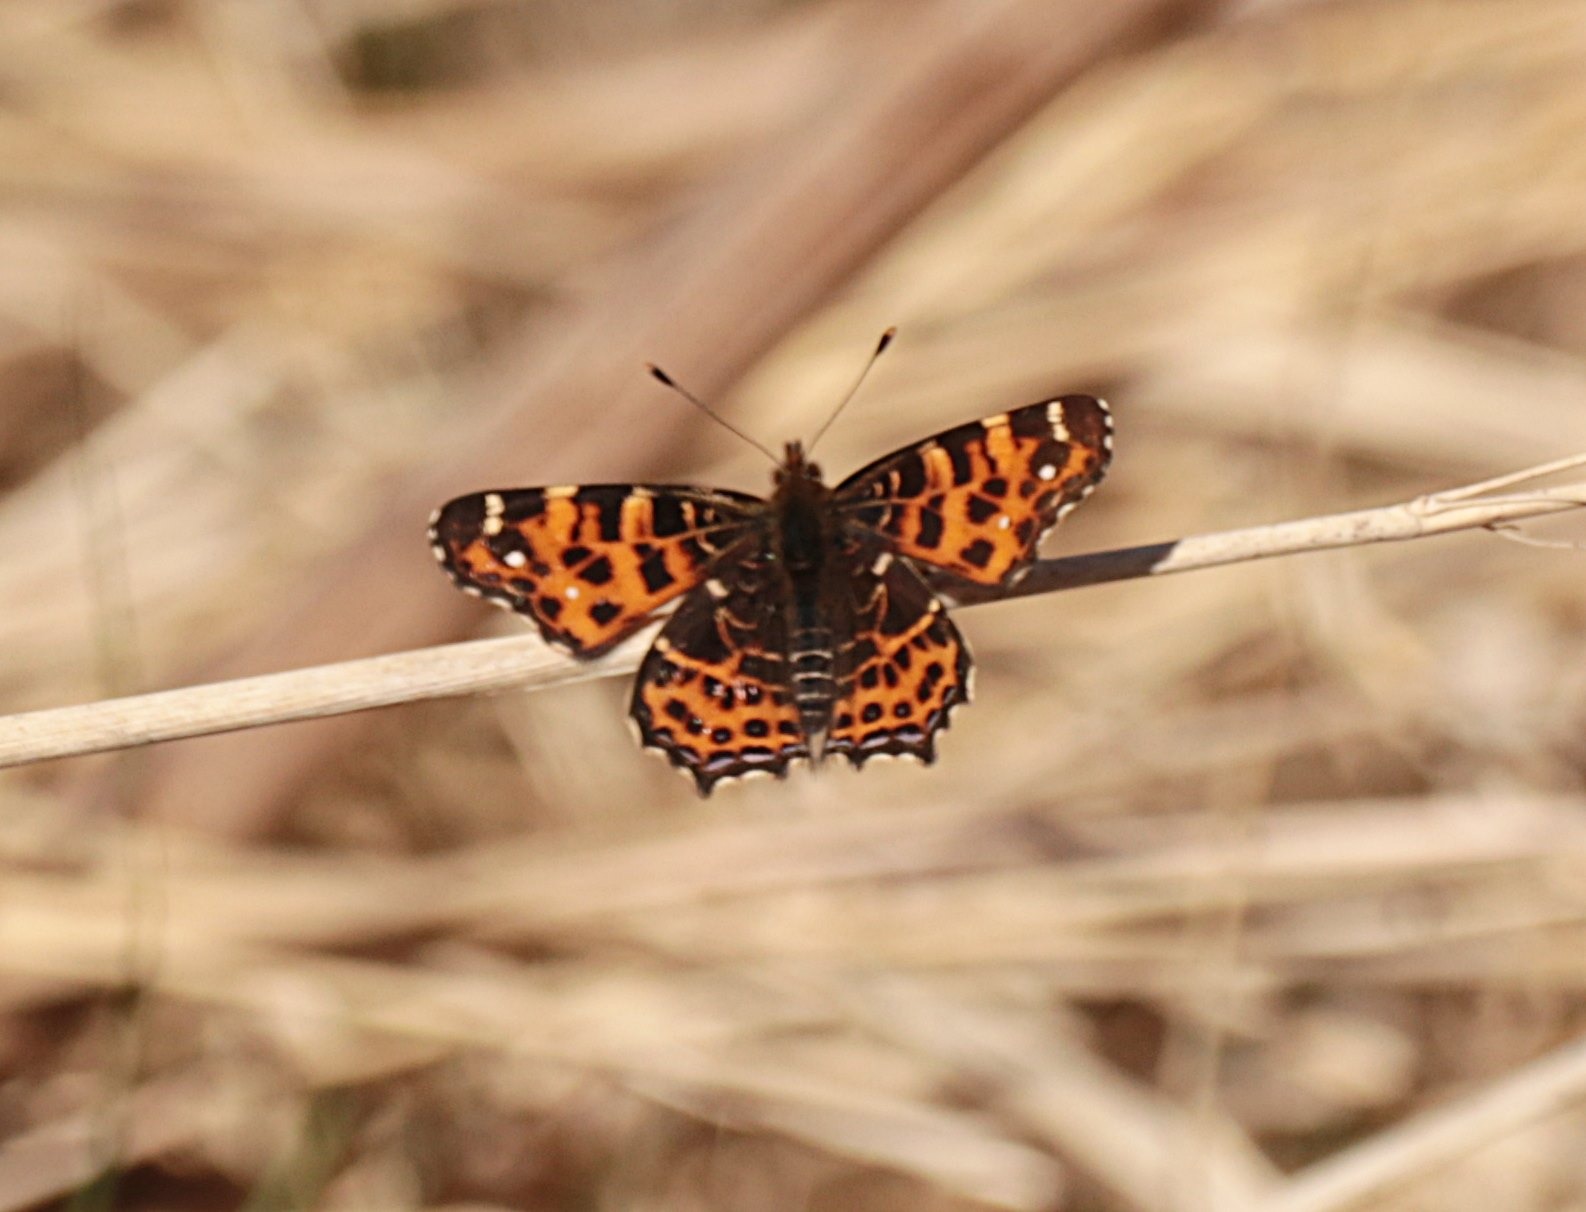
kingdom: Animalia
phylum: Arthropoda
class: Insecta
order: Lepidoptera
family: Nymphalidae
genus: Araschnia
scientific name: Araschnia levana
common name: Nældesommerfugl
